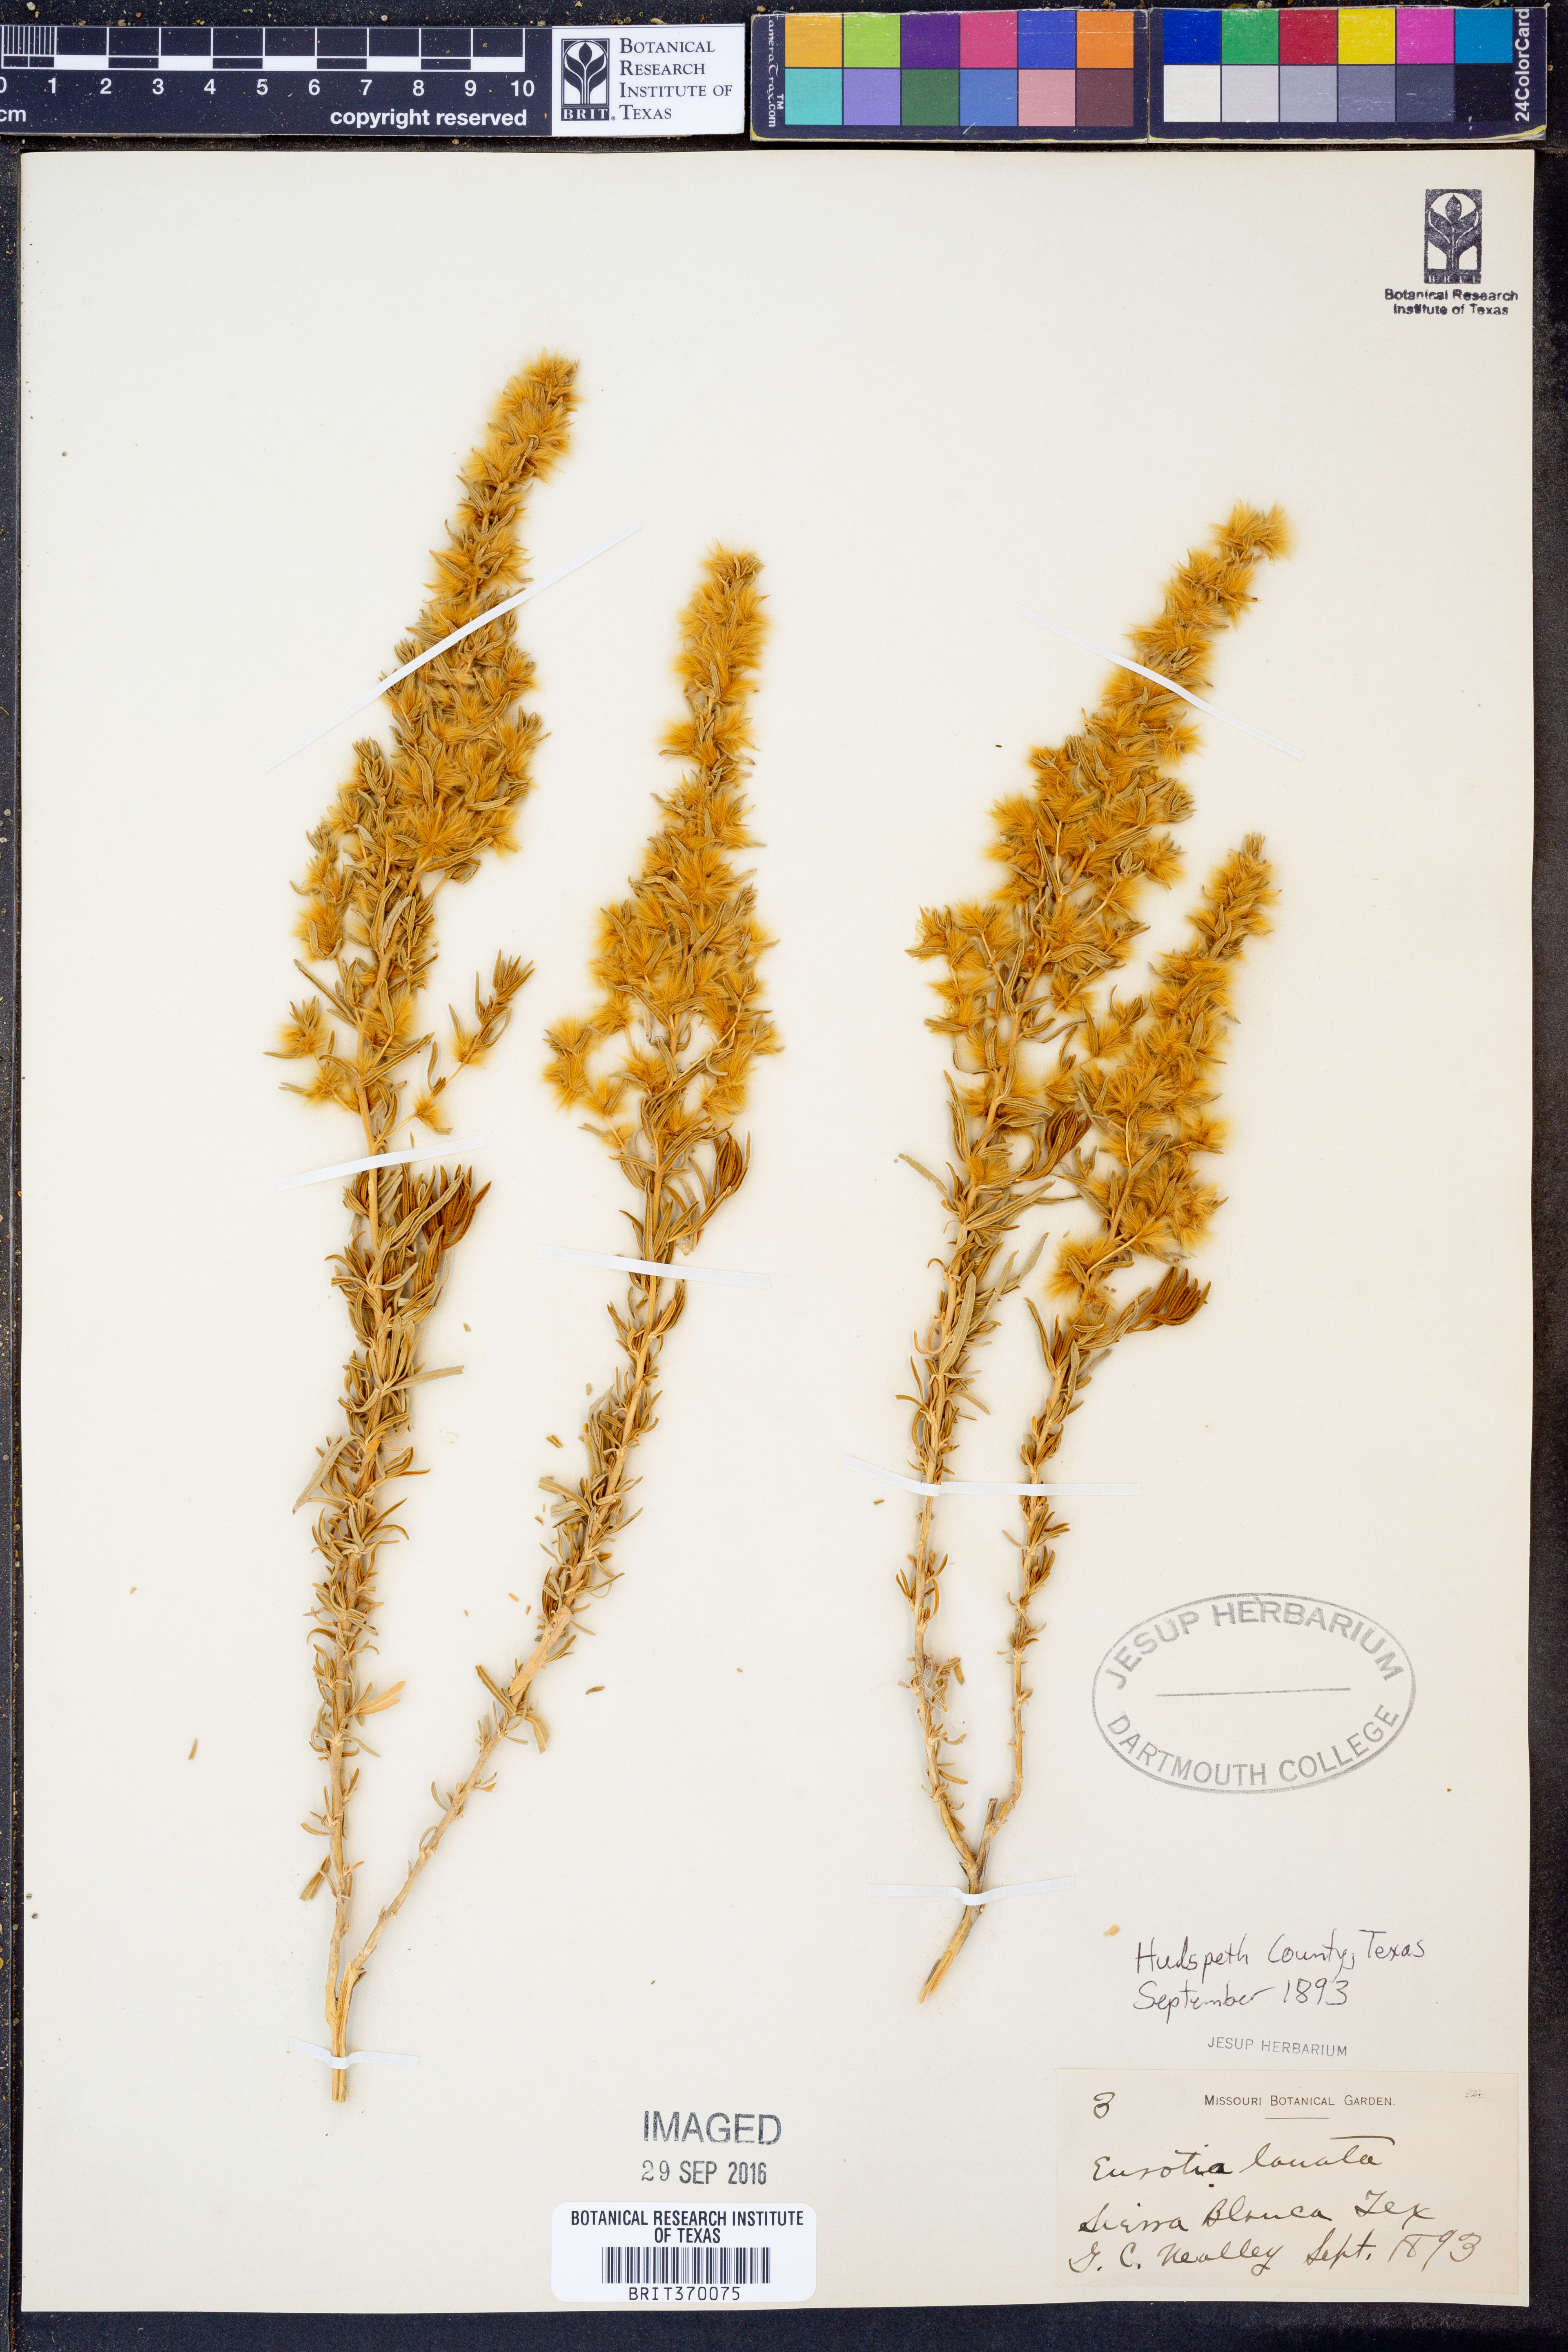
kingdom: Plantae
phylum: Tracheophyta
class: Magnoliopsida
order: Caryophyllales
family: Amaranthaceae
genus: Krascheninnikovia
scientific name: Krascheninnikovia lanata
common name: Winterfat
